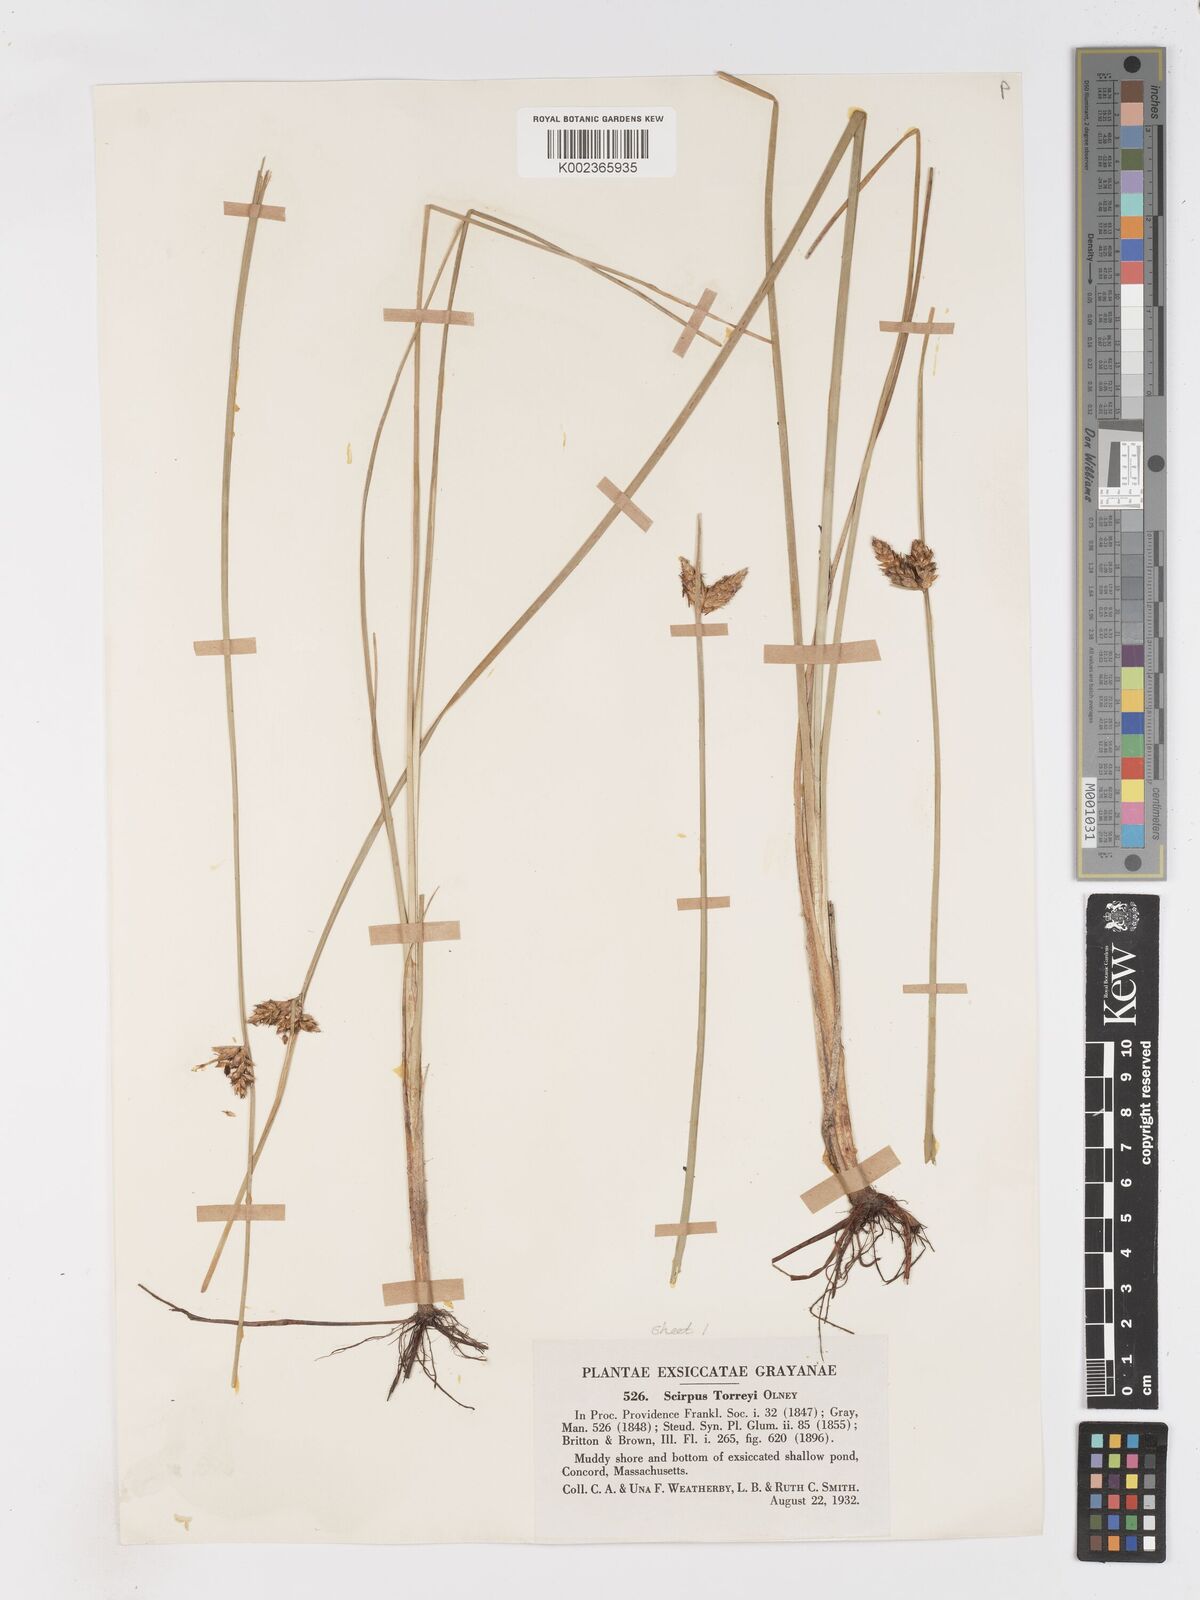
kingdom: Plantae
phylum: Tracheophyta
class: Liliopsida
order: Poales
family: Cyperaceae
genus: Schoenoplectus
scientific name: Schoenoplectus torreyi
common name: Torrey's bulrush
